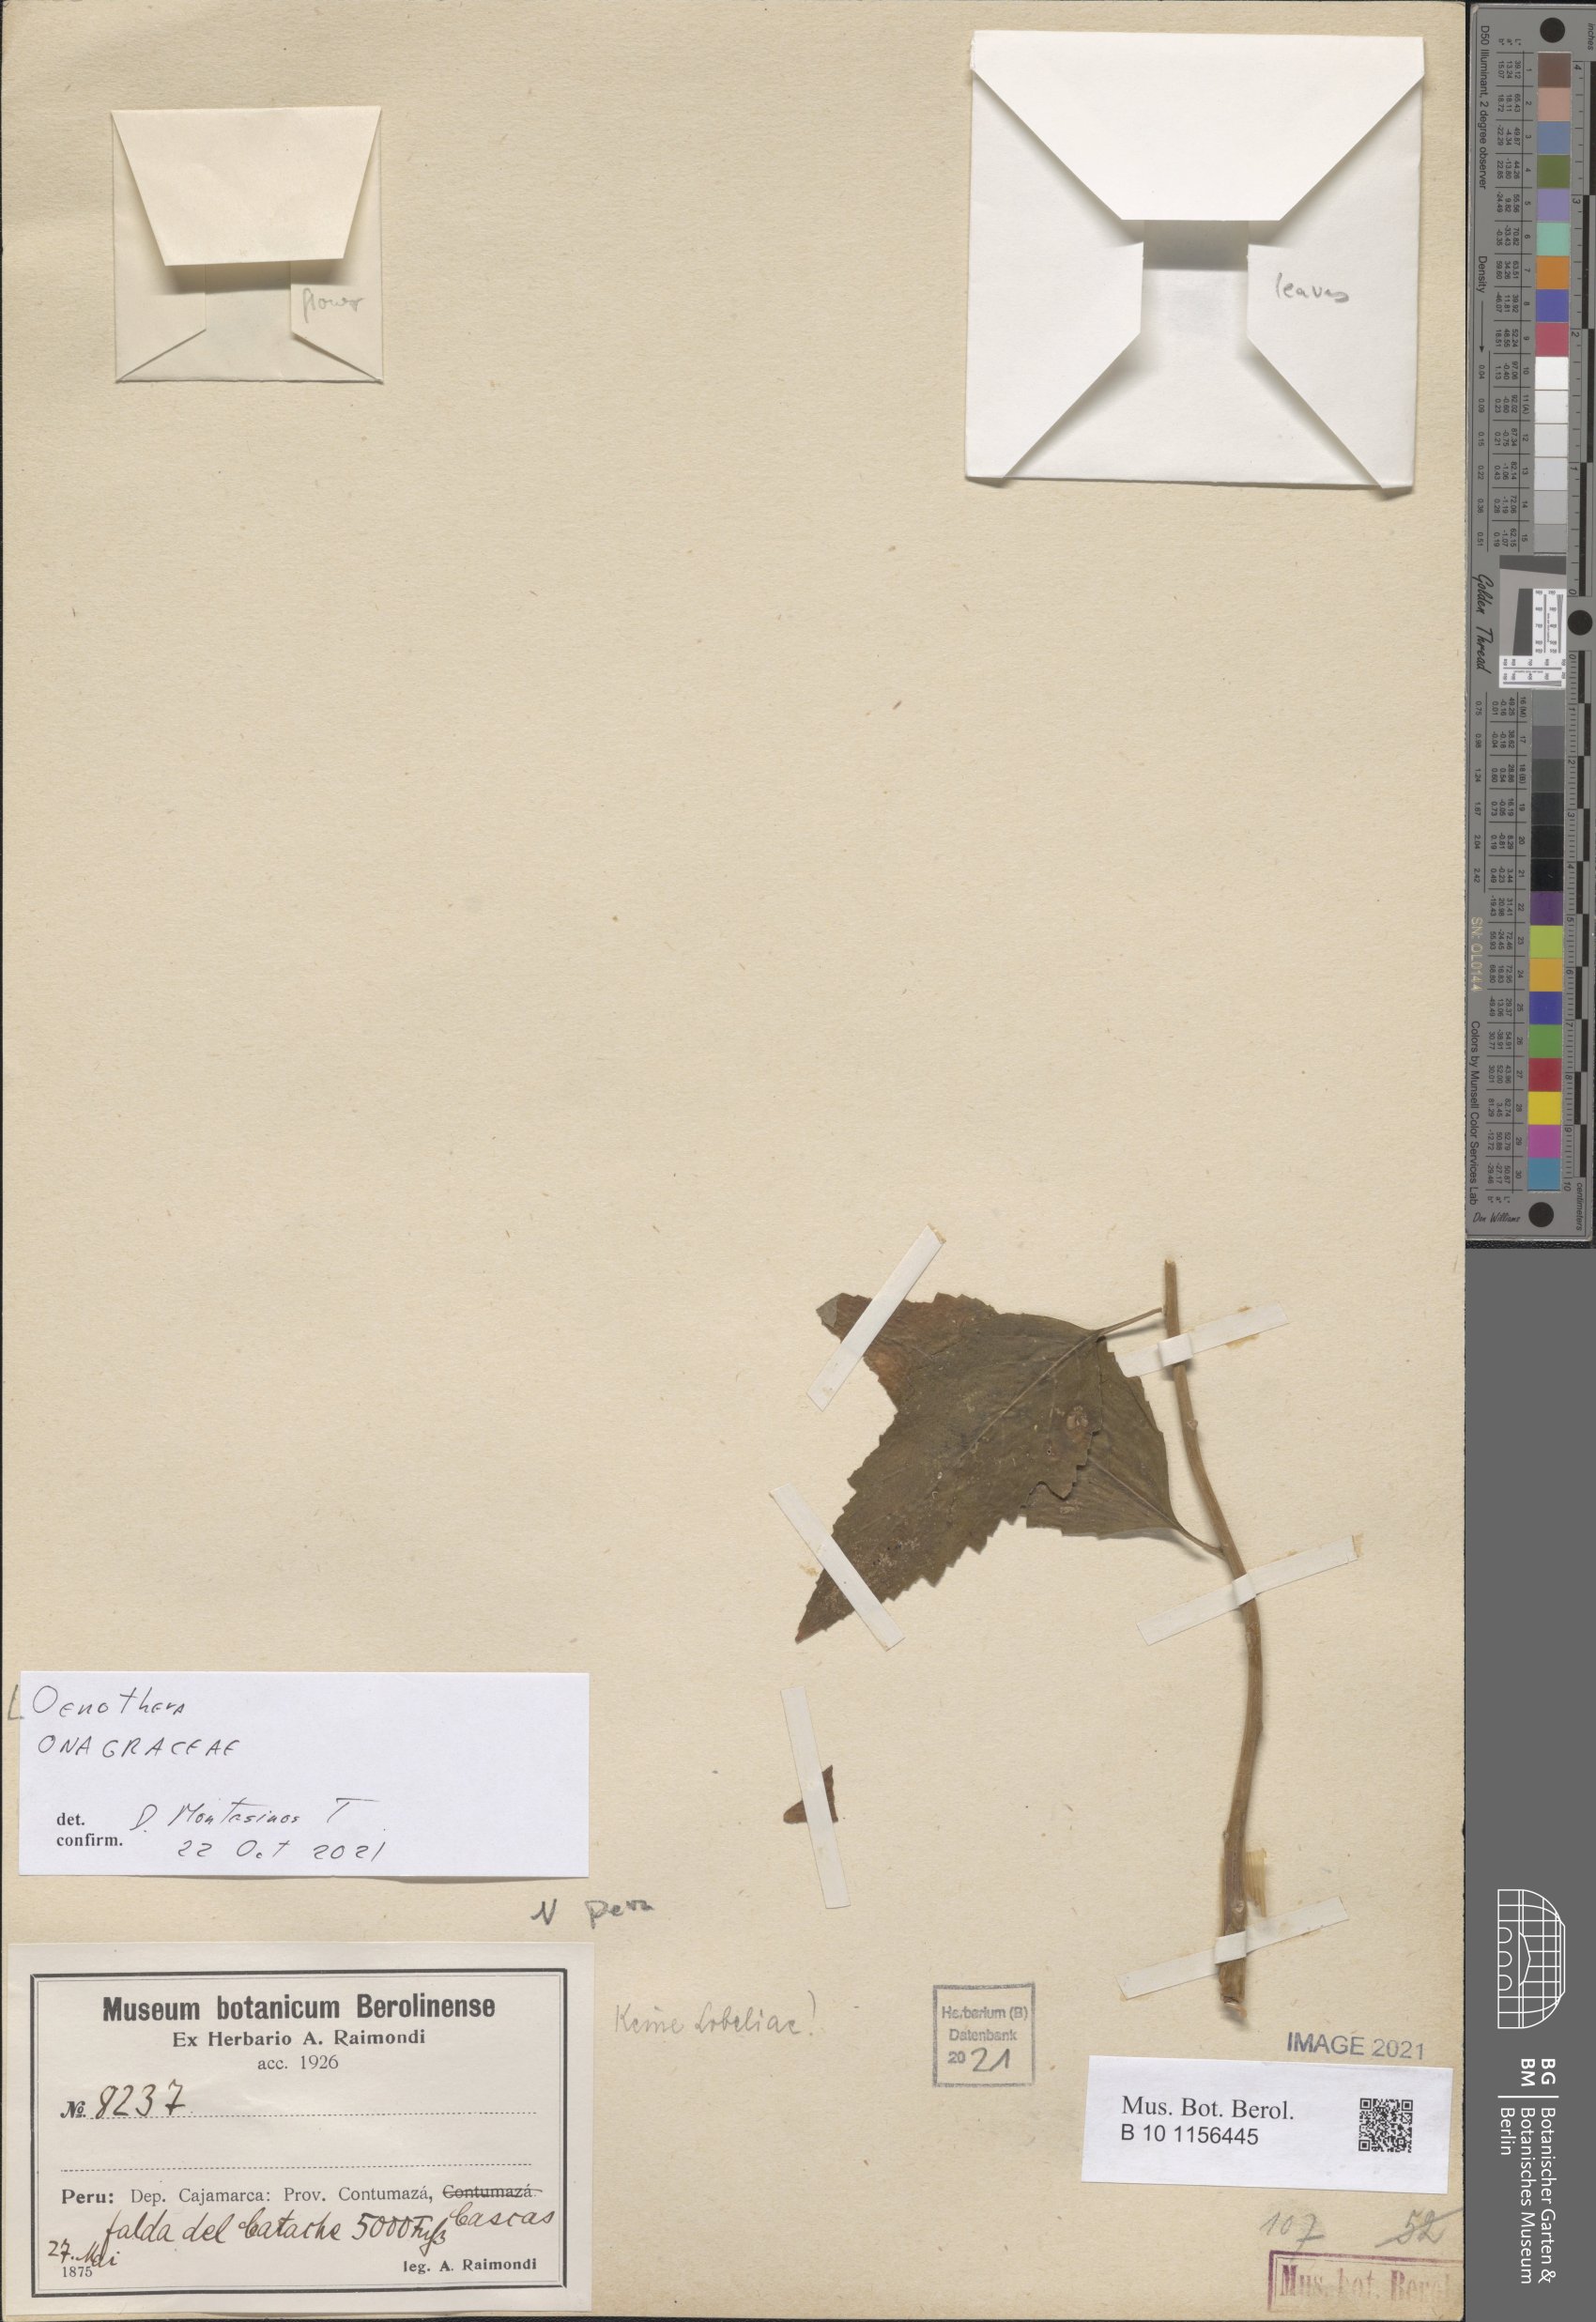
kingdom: Plantae
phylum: Tracheophyta
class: Magnoliopsida
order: Myrtales
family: Onagraceae
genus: Oenothera
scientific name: Oenothera
